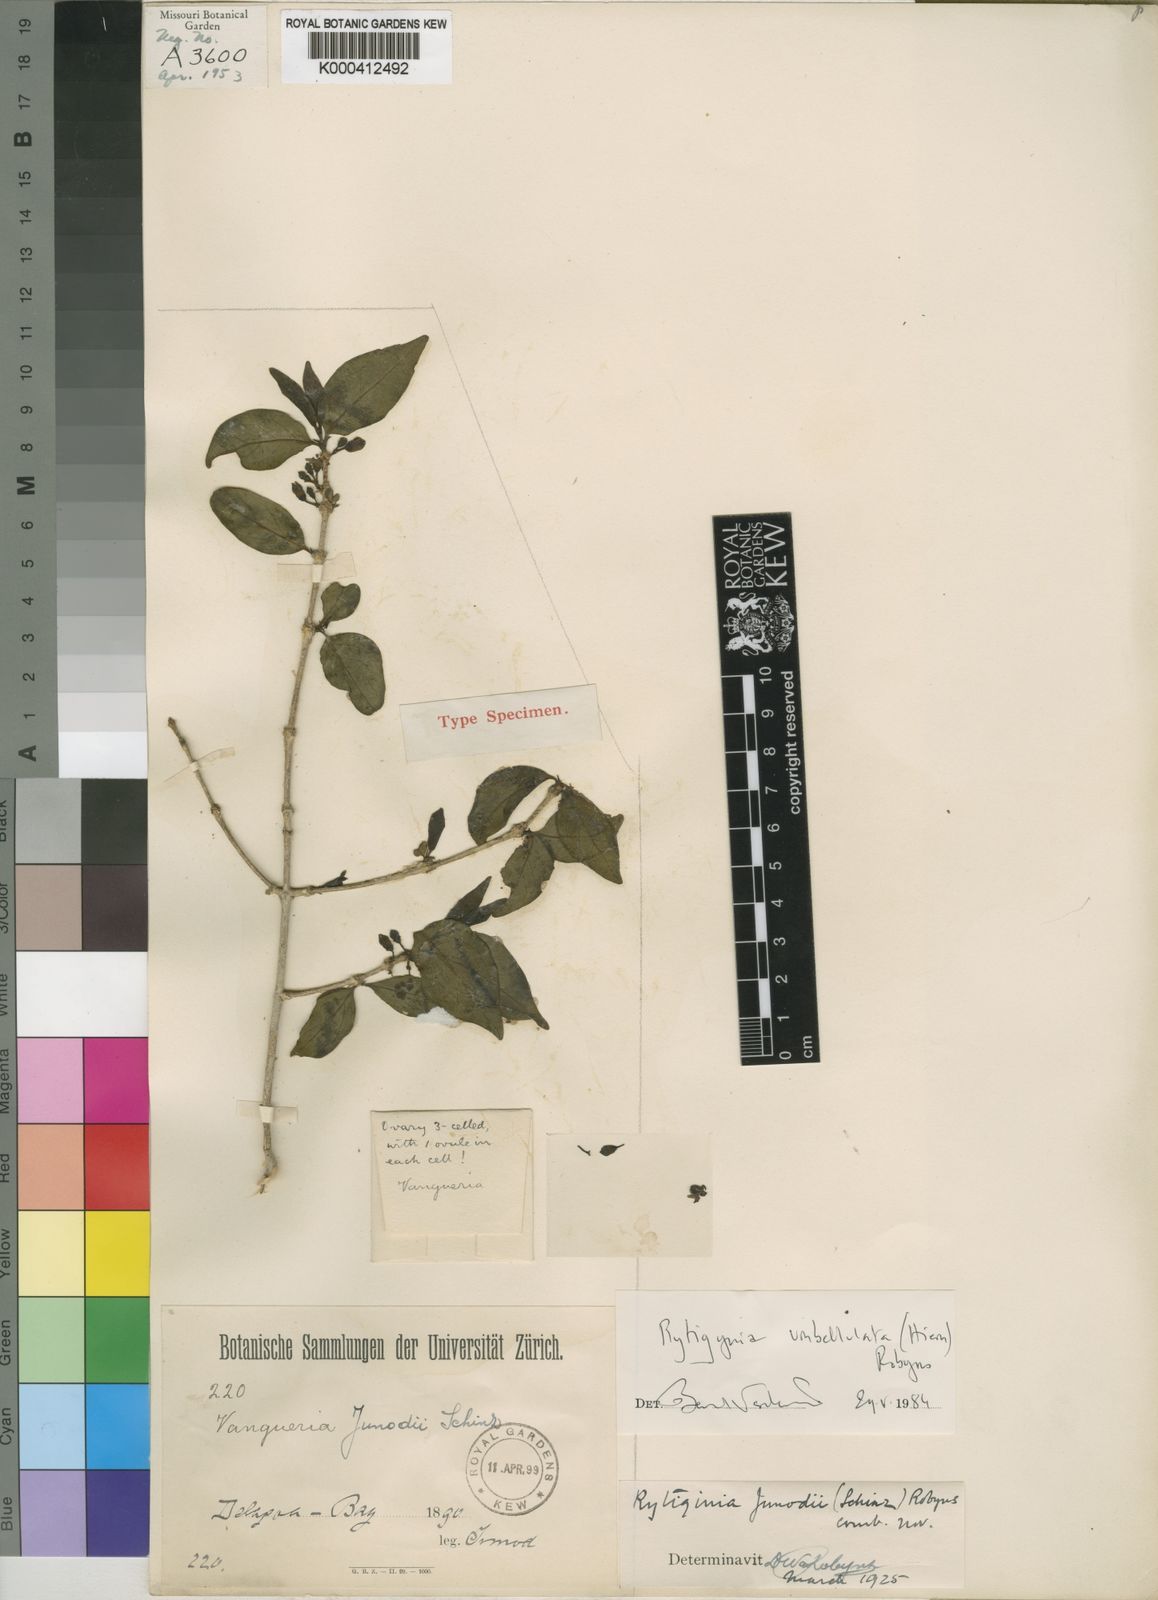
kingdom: Plantae
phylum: Tracheophyta
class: Magnoliopsida
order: Gentianales
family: Rubiaceae
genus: Rytigynia
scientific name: Rytigynia umbellulata
